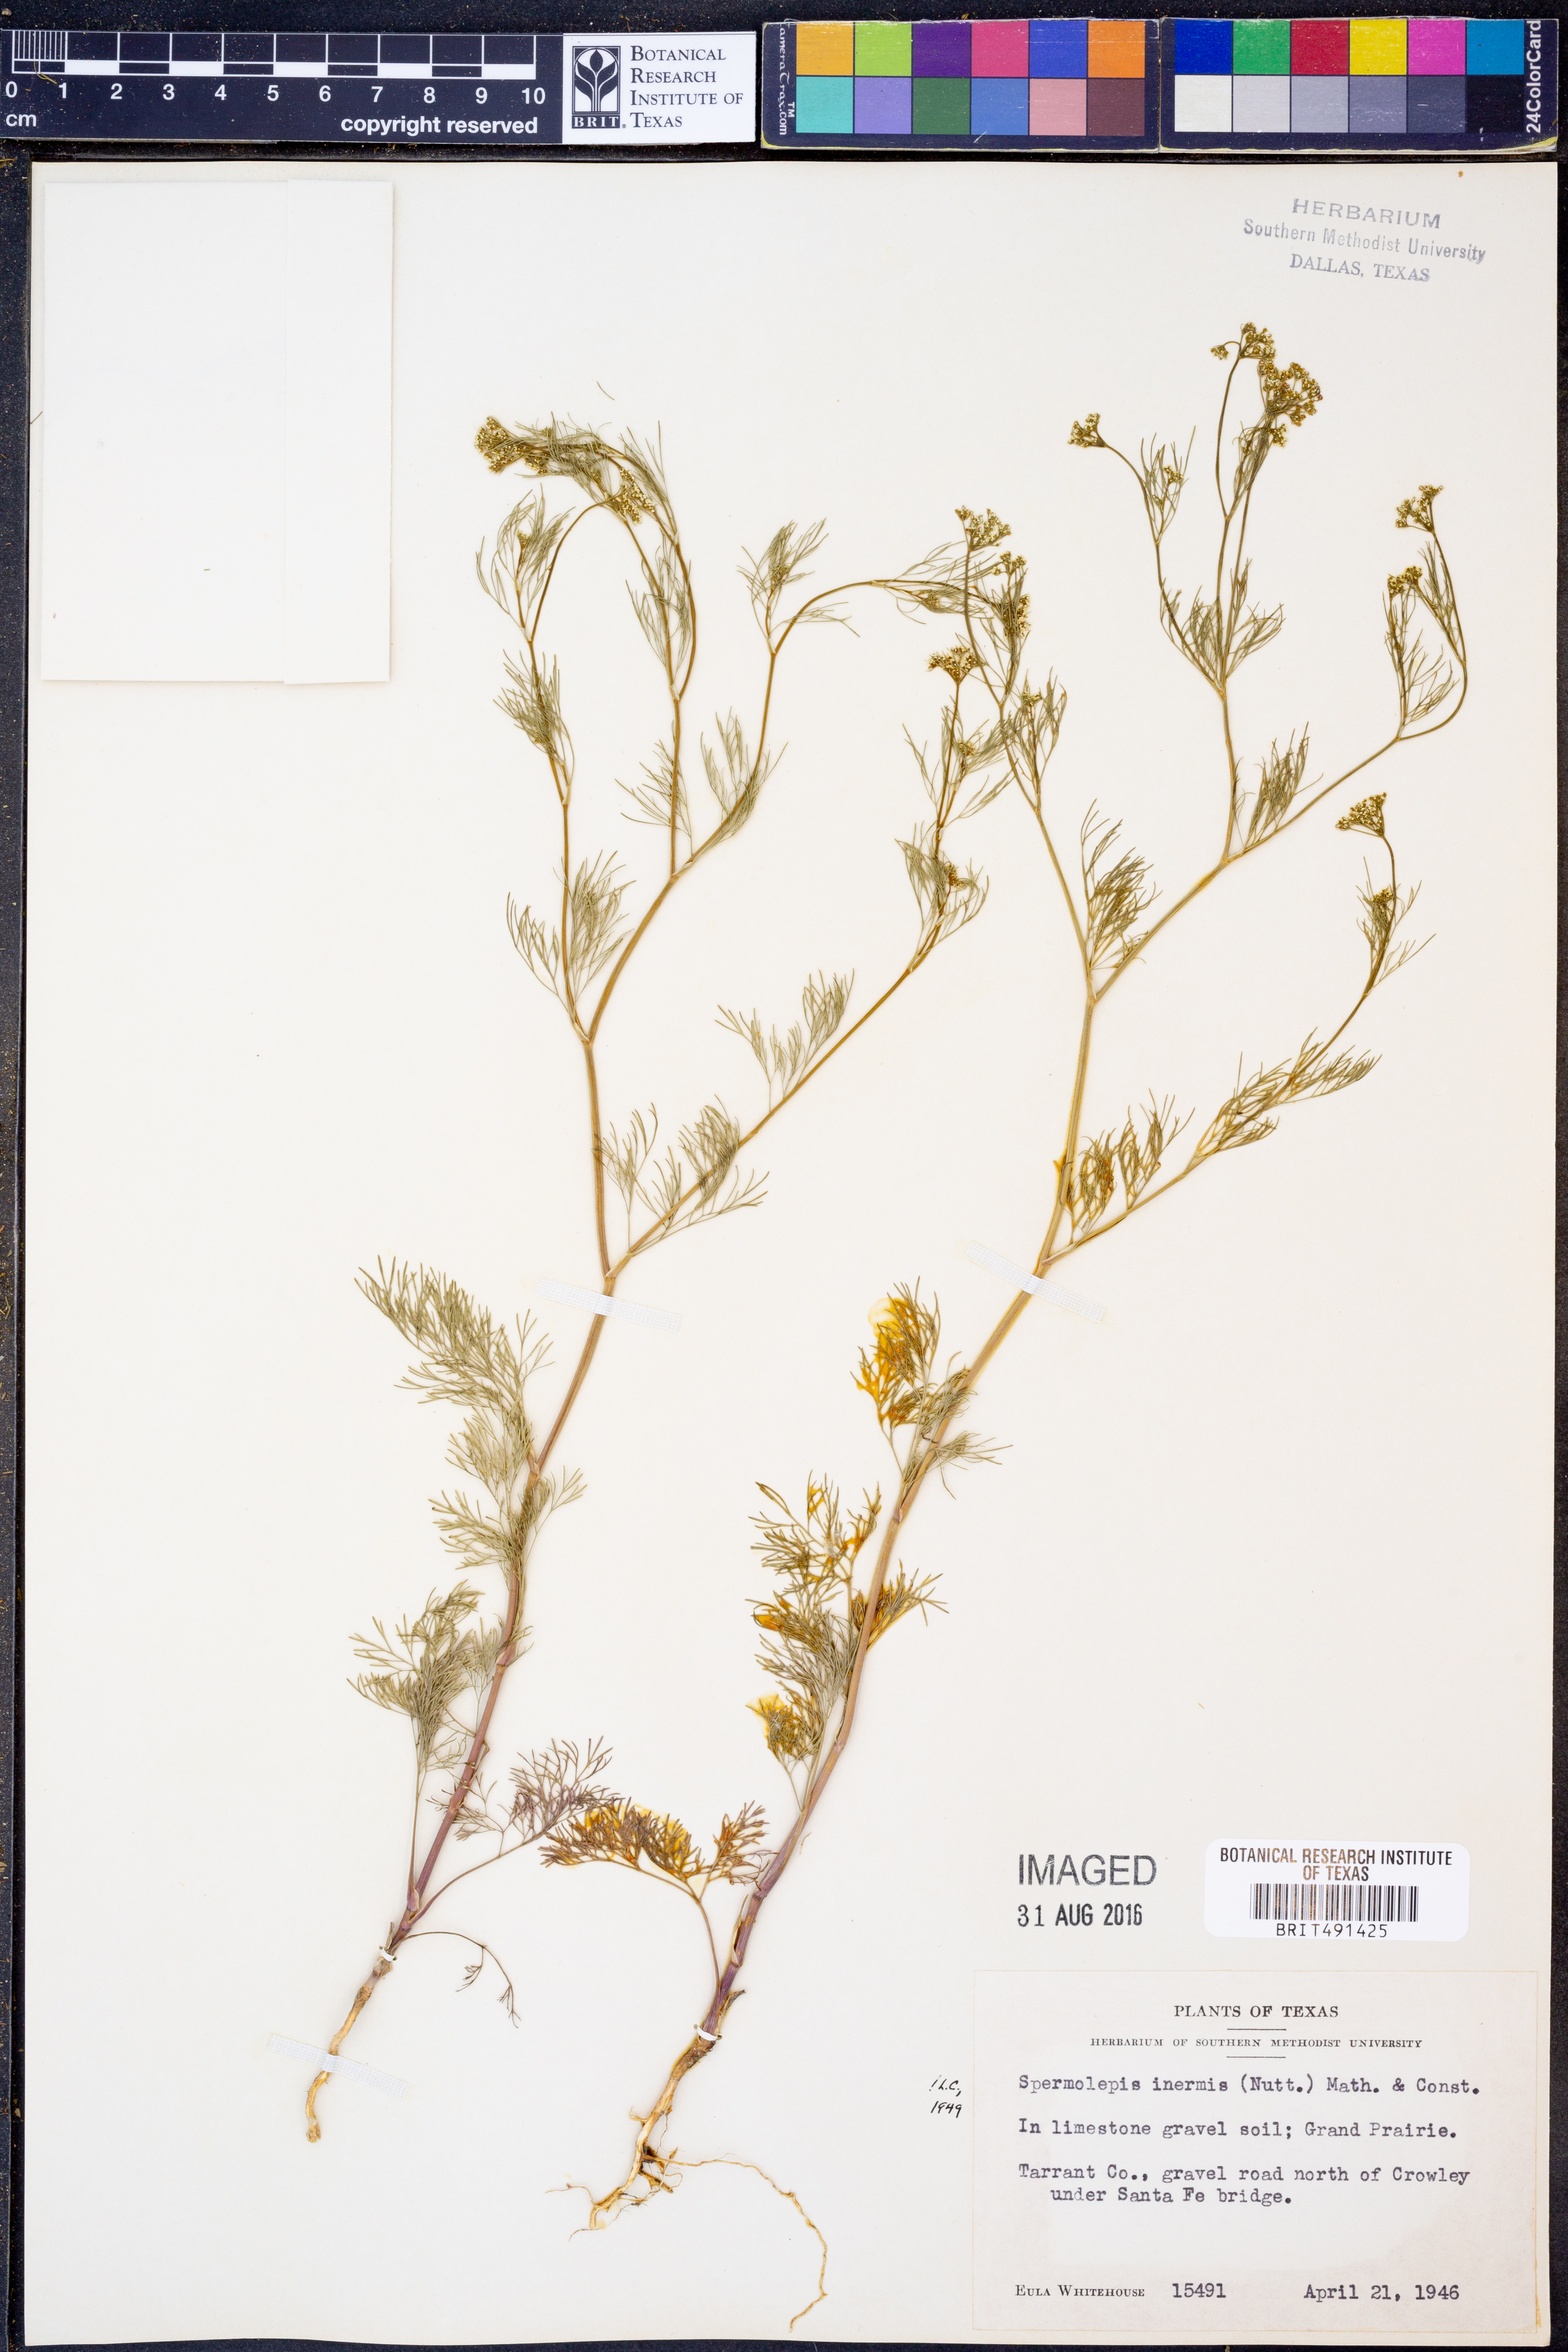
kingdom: Plantae
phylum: Tracheophyta
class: Magnoliopsida
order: Apiales
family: Apiaceae
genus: Spermolepis
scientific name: Spermolepis inermis
